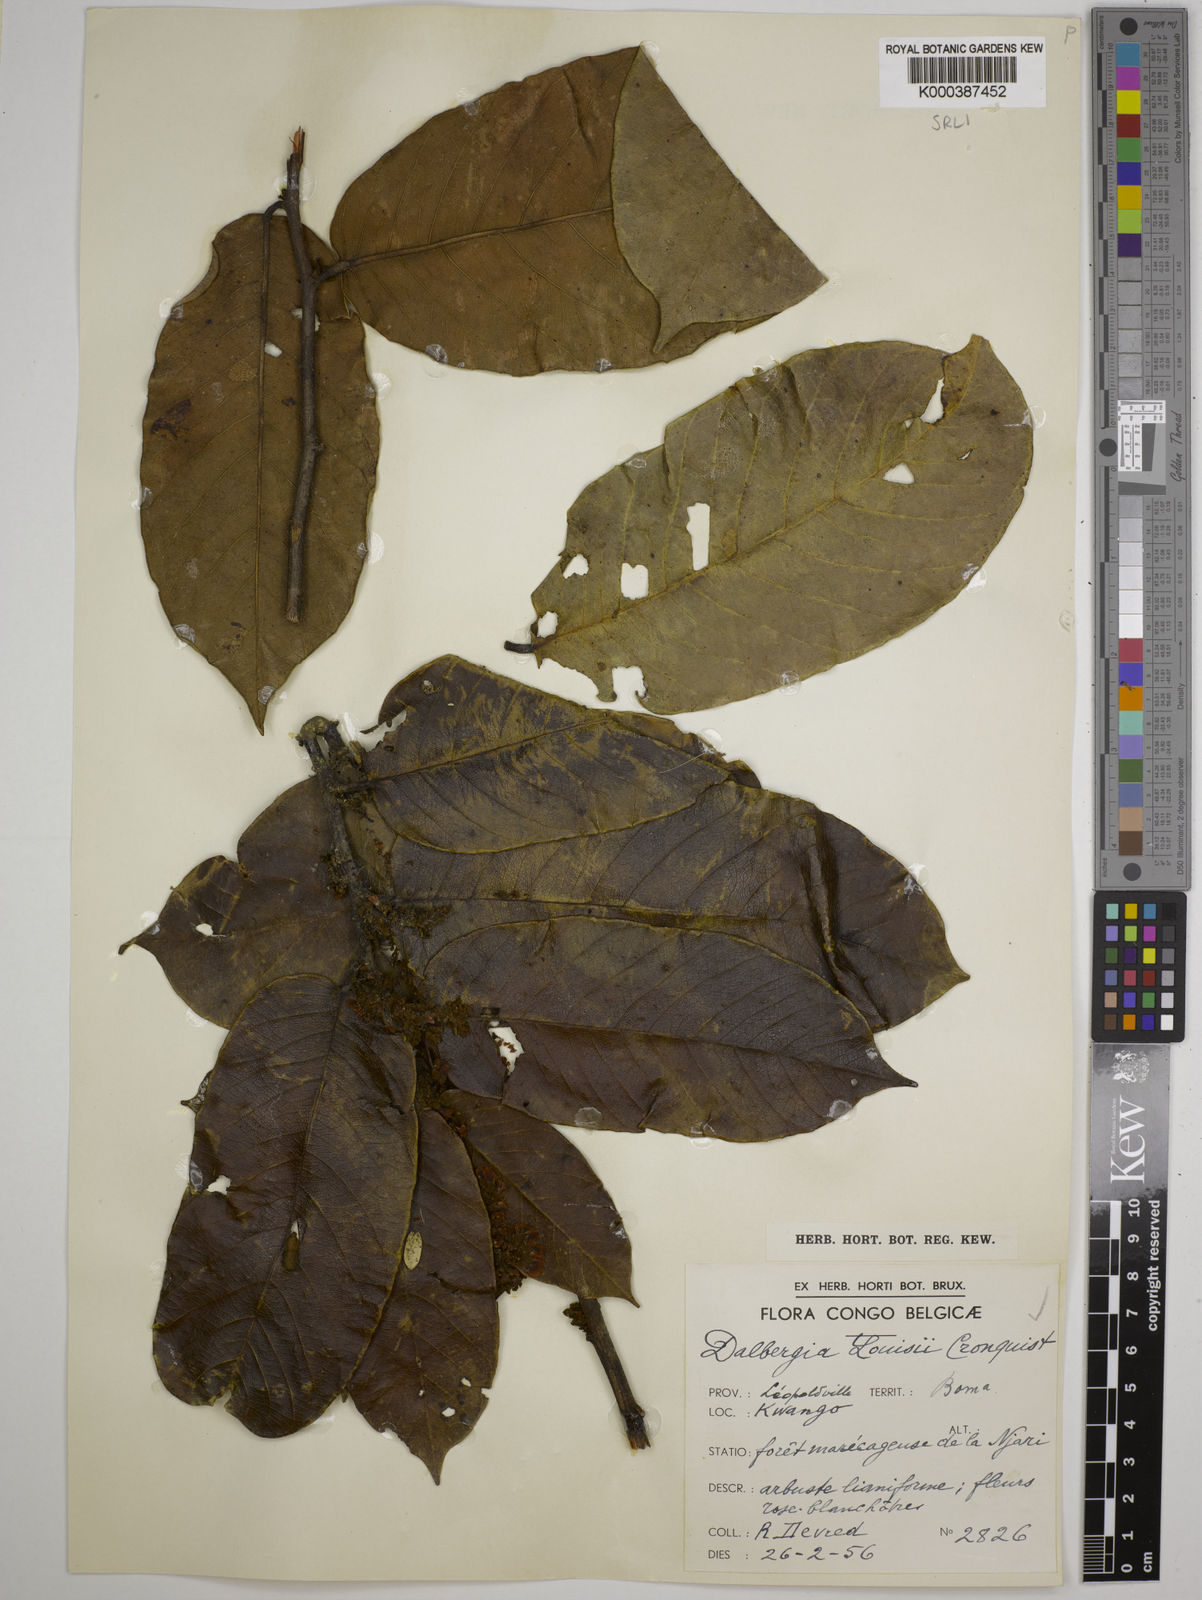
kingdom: Plantae
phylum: Tracheophyta
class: Magnoliopsida
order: Fabales
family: Fabaceae
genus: Dalbergia
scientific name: Dalbergia louisii
